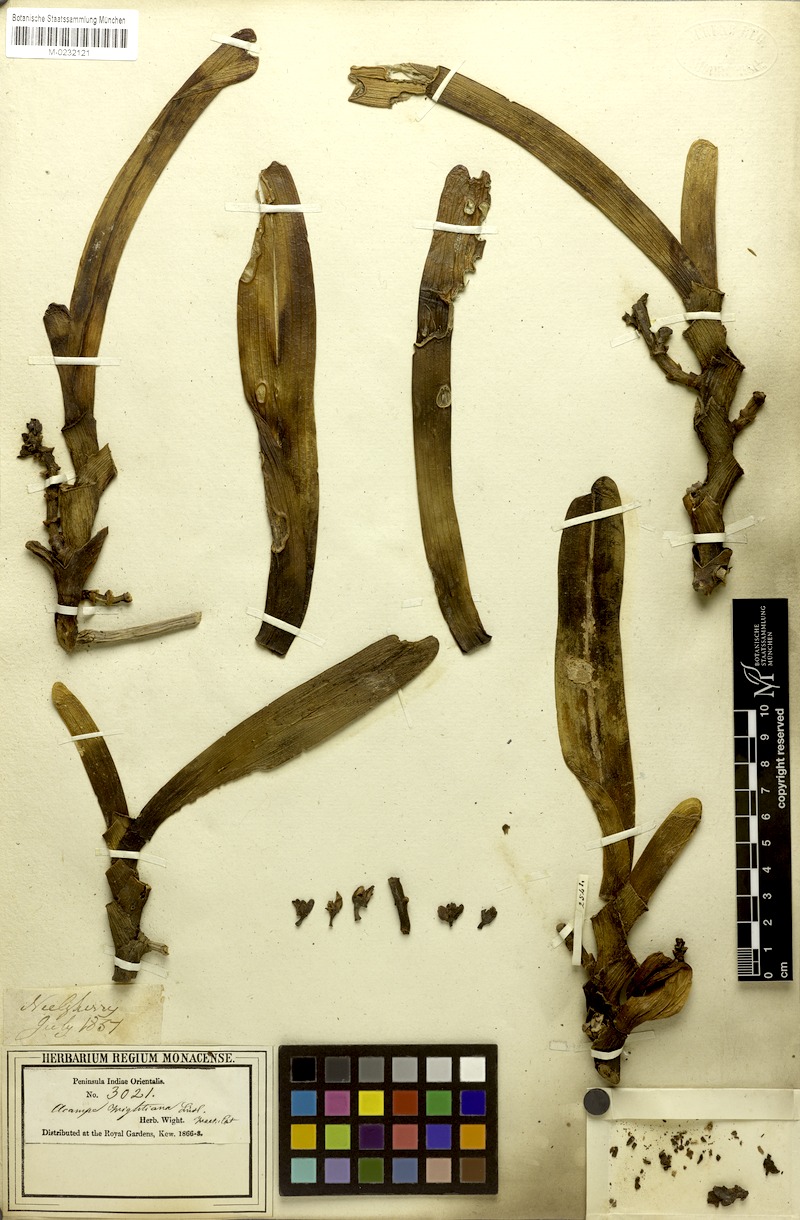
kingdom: Plantae
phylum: Tracheophyta
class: Liliopsida
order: Asparagales
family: Orchidaceae
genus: Acampe
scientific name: Acampe praemorsa
